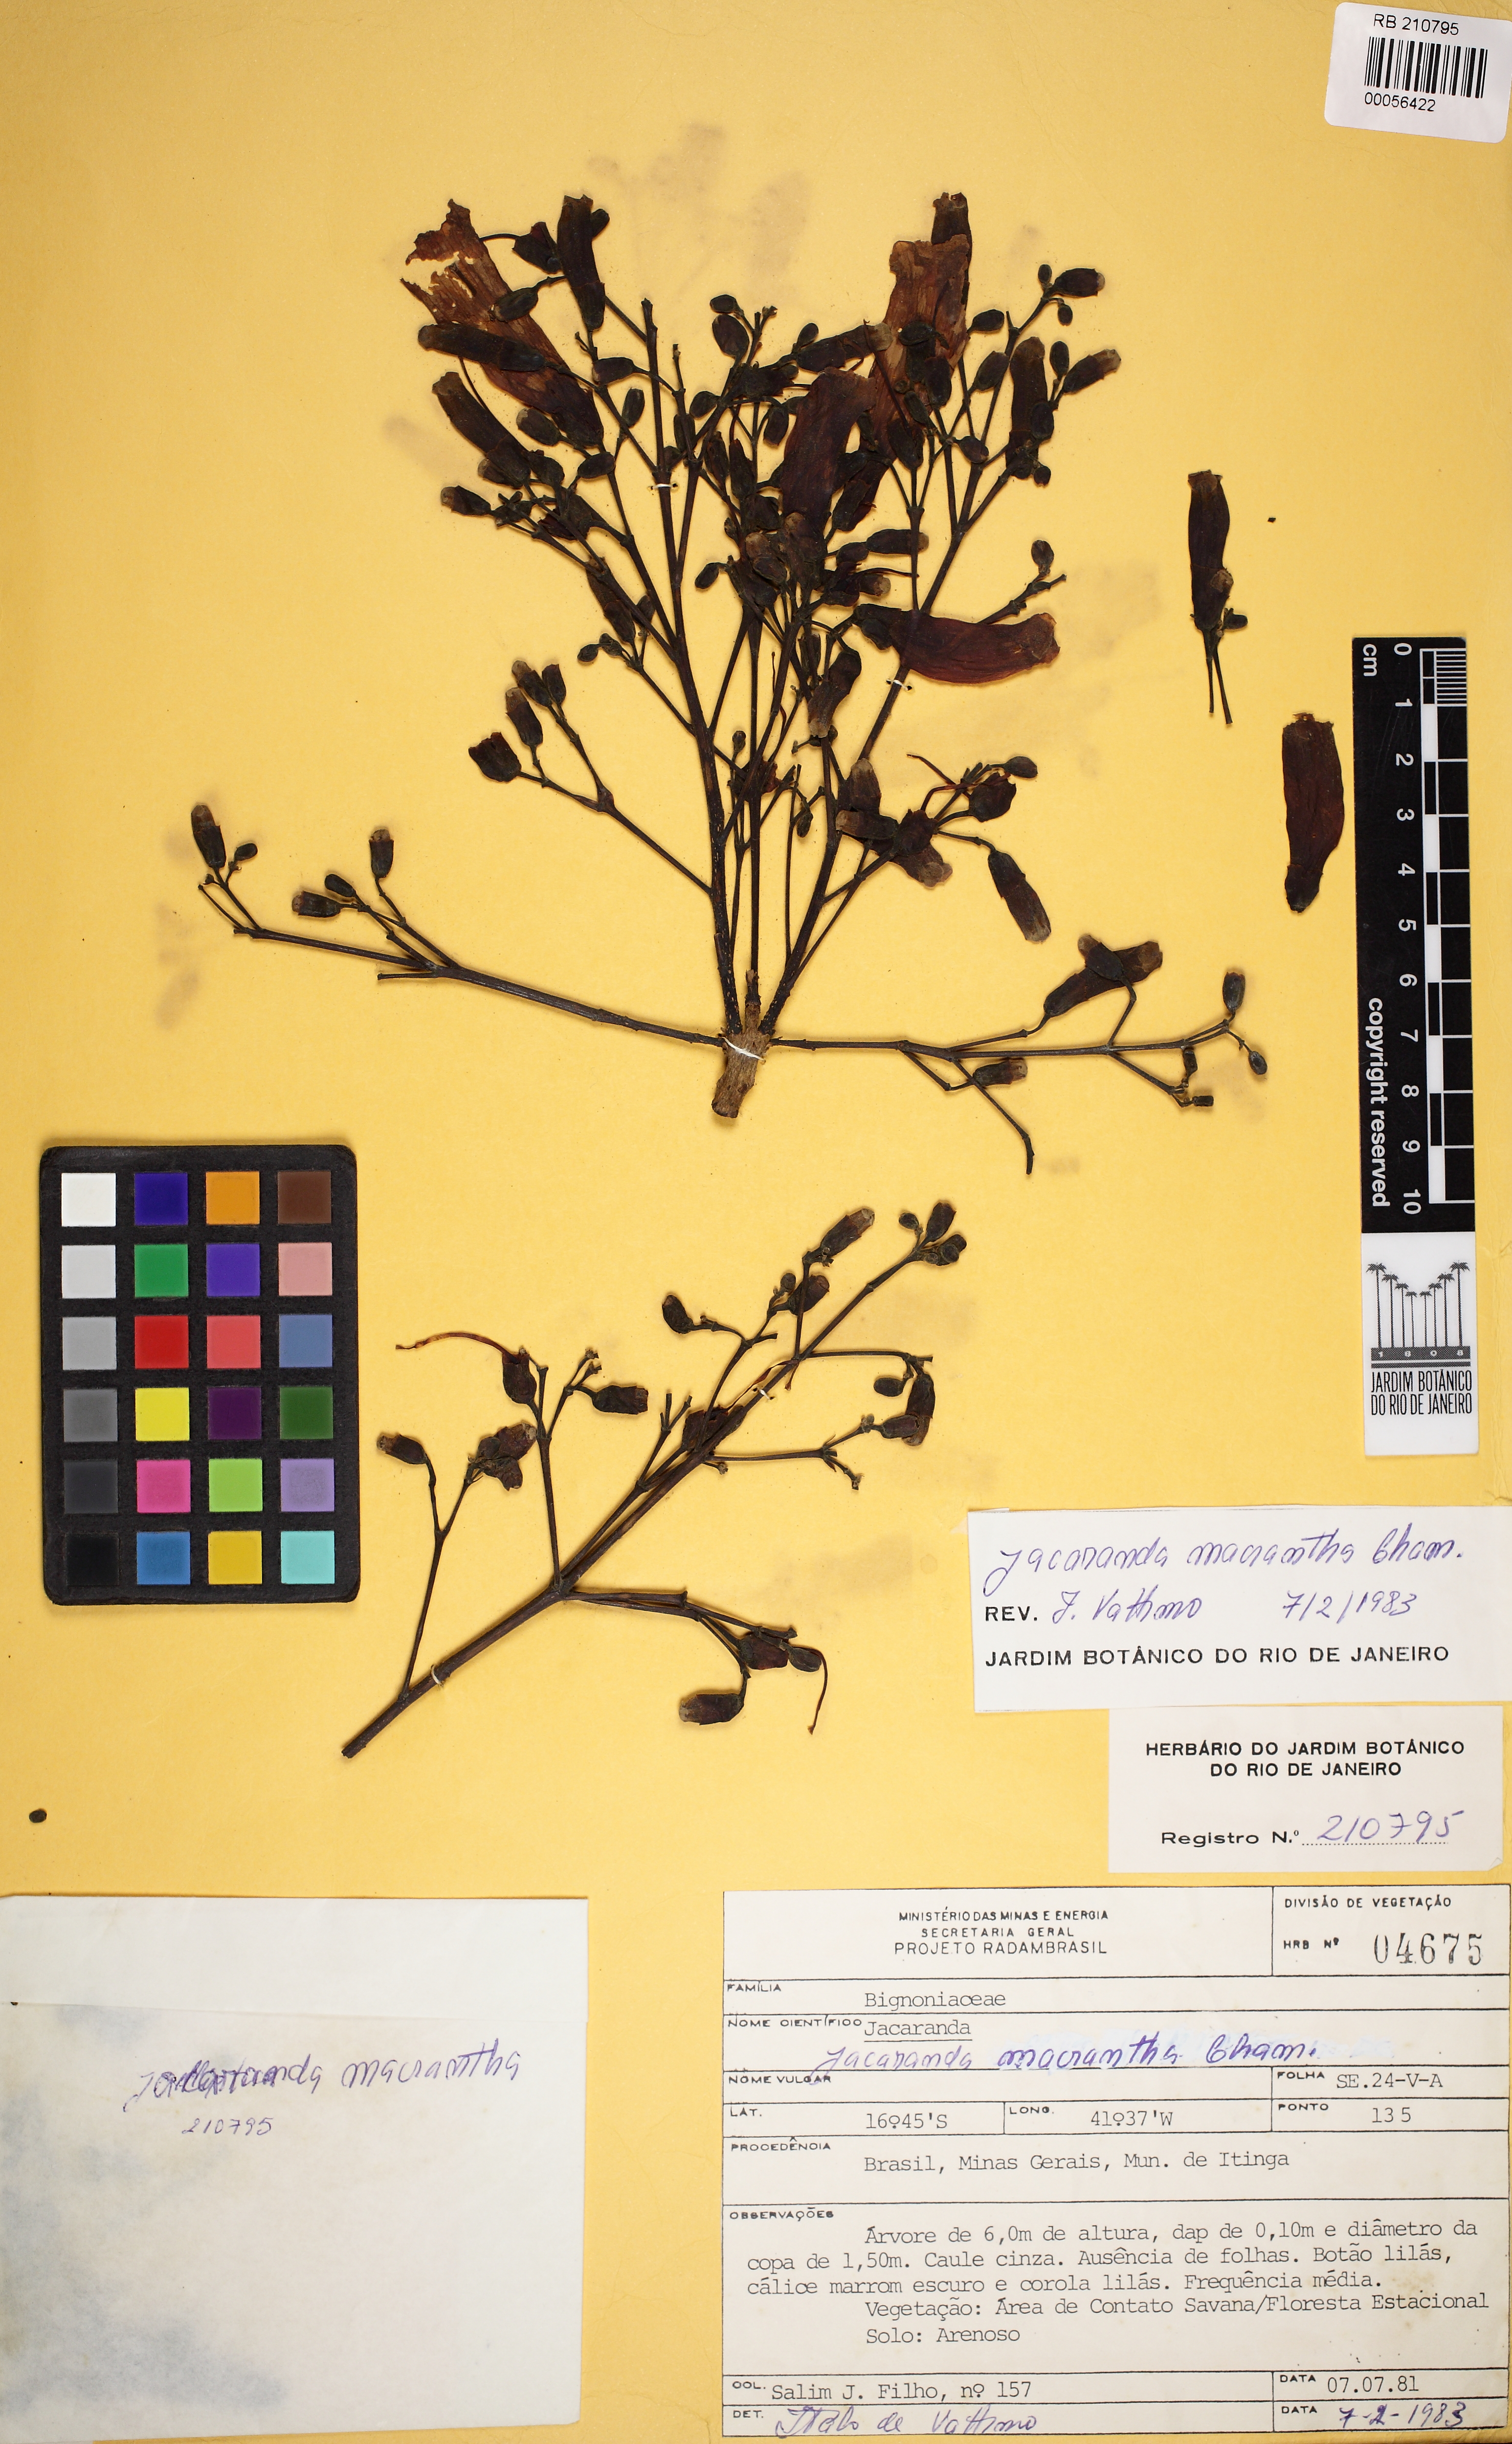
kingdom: Plantae
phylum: Tracheophyta
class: Magnoliopsida
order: Lamiales
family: Bignoniaceae
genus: Jacaranda
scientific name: Jacaranda jasminoides
